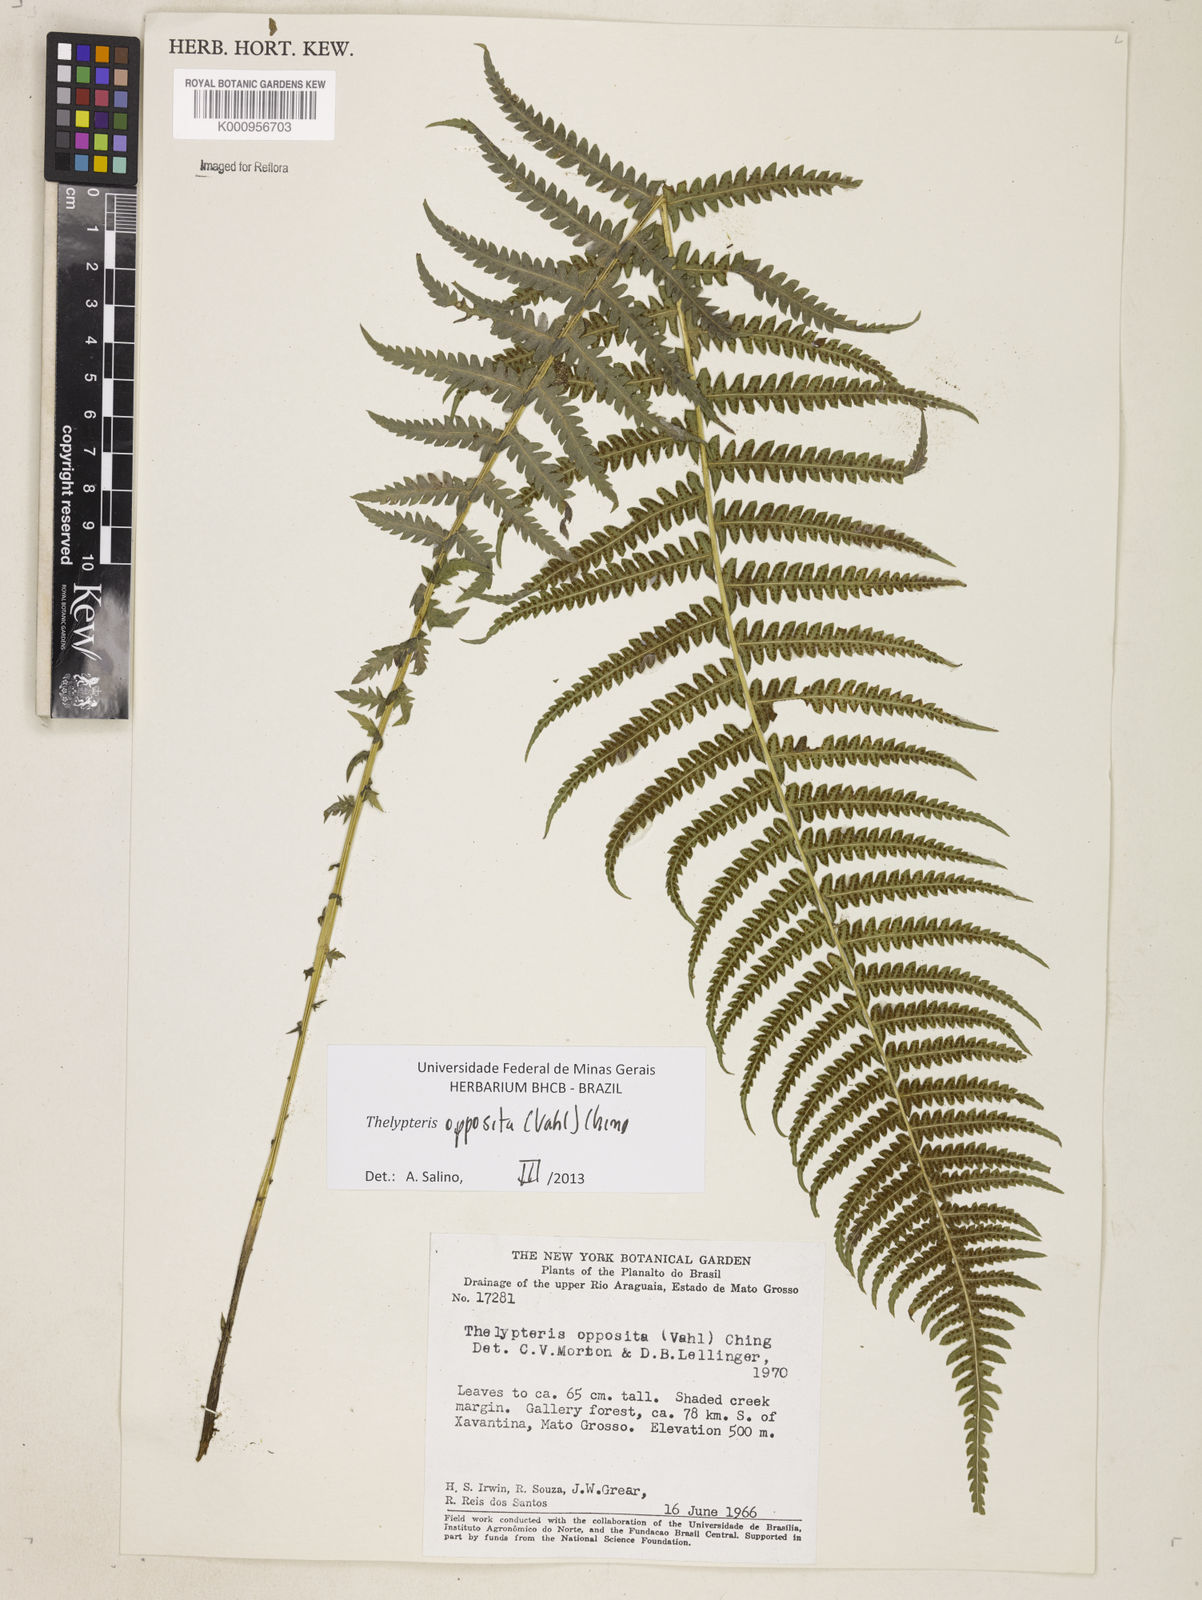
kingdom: Plantae
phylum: Tracheophyta
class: Polypodiopsida
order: Polypodiales
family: Thelypteridaceae
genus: Amauropelta
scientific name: Amauropelta opposita
